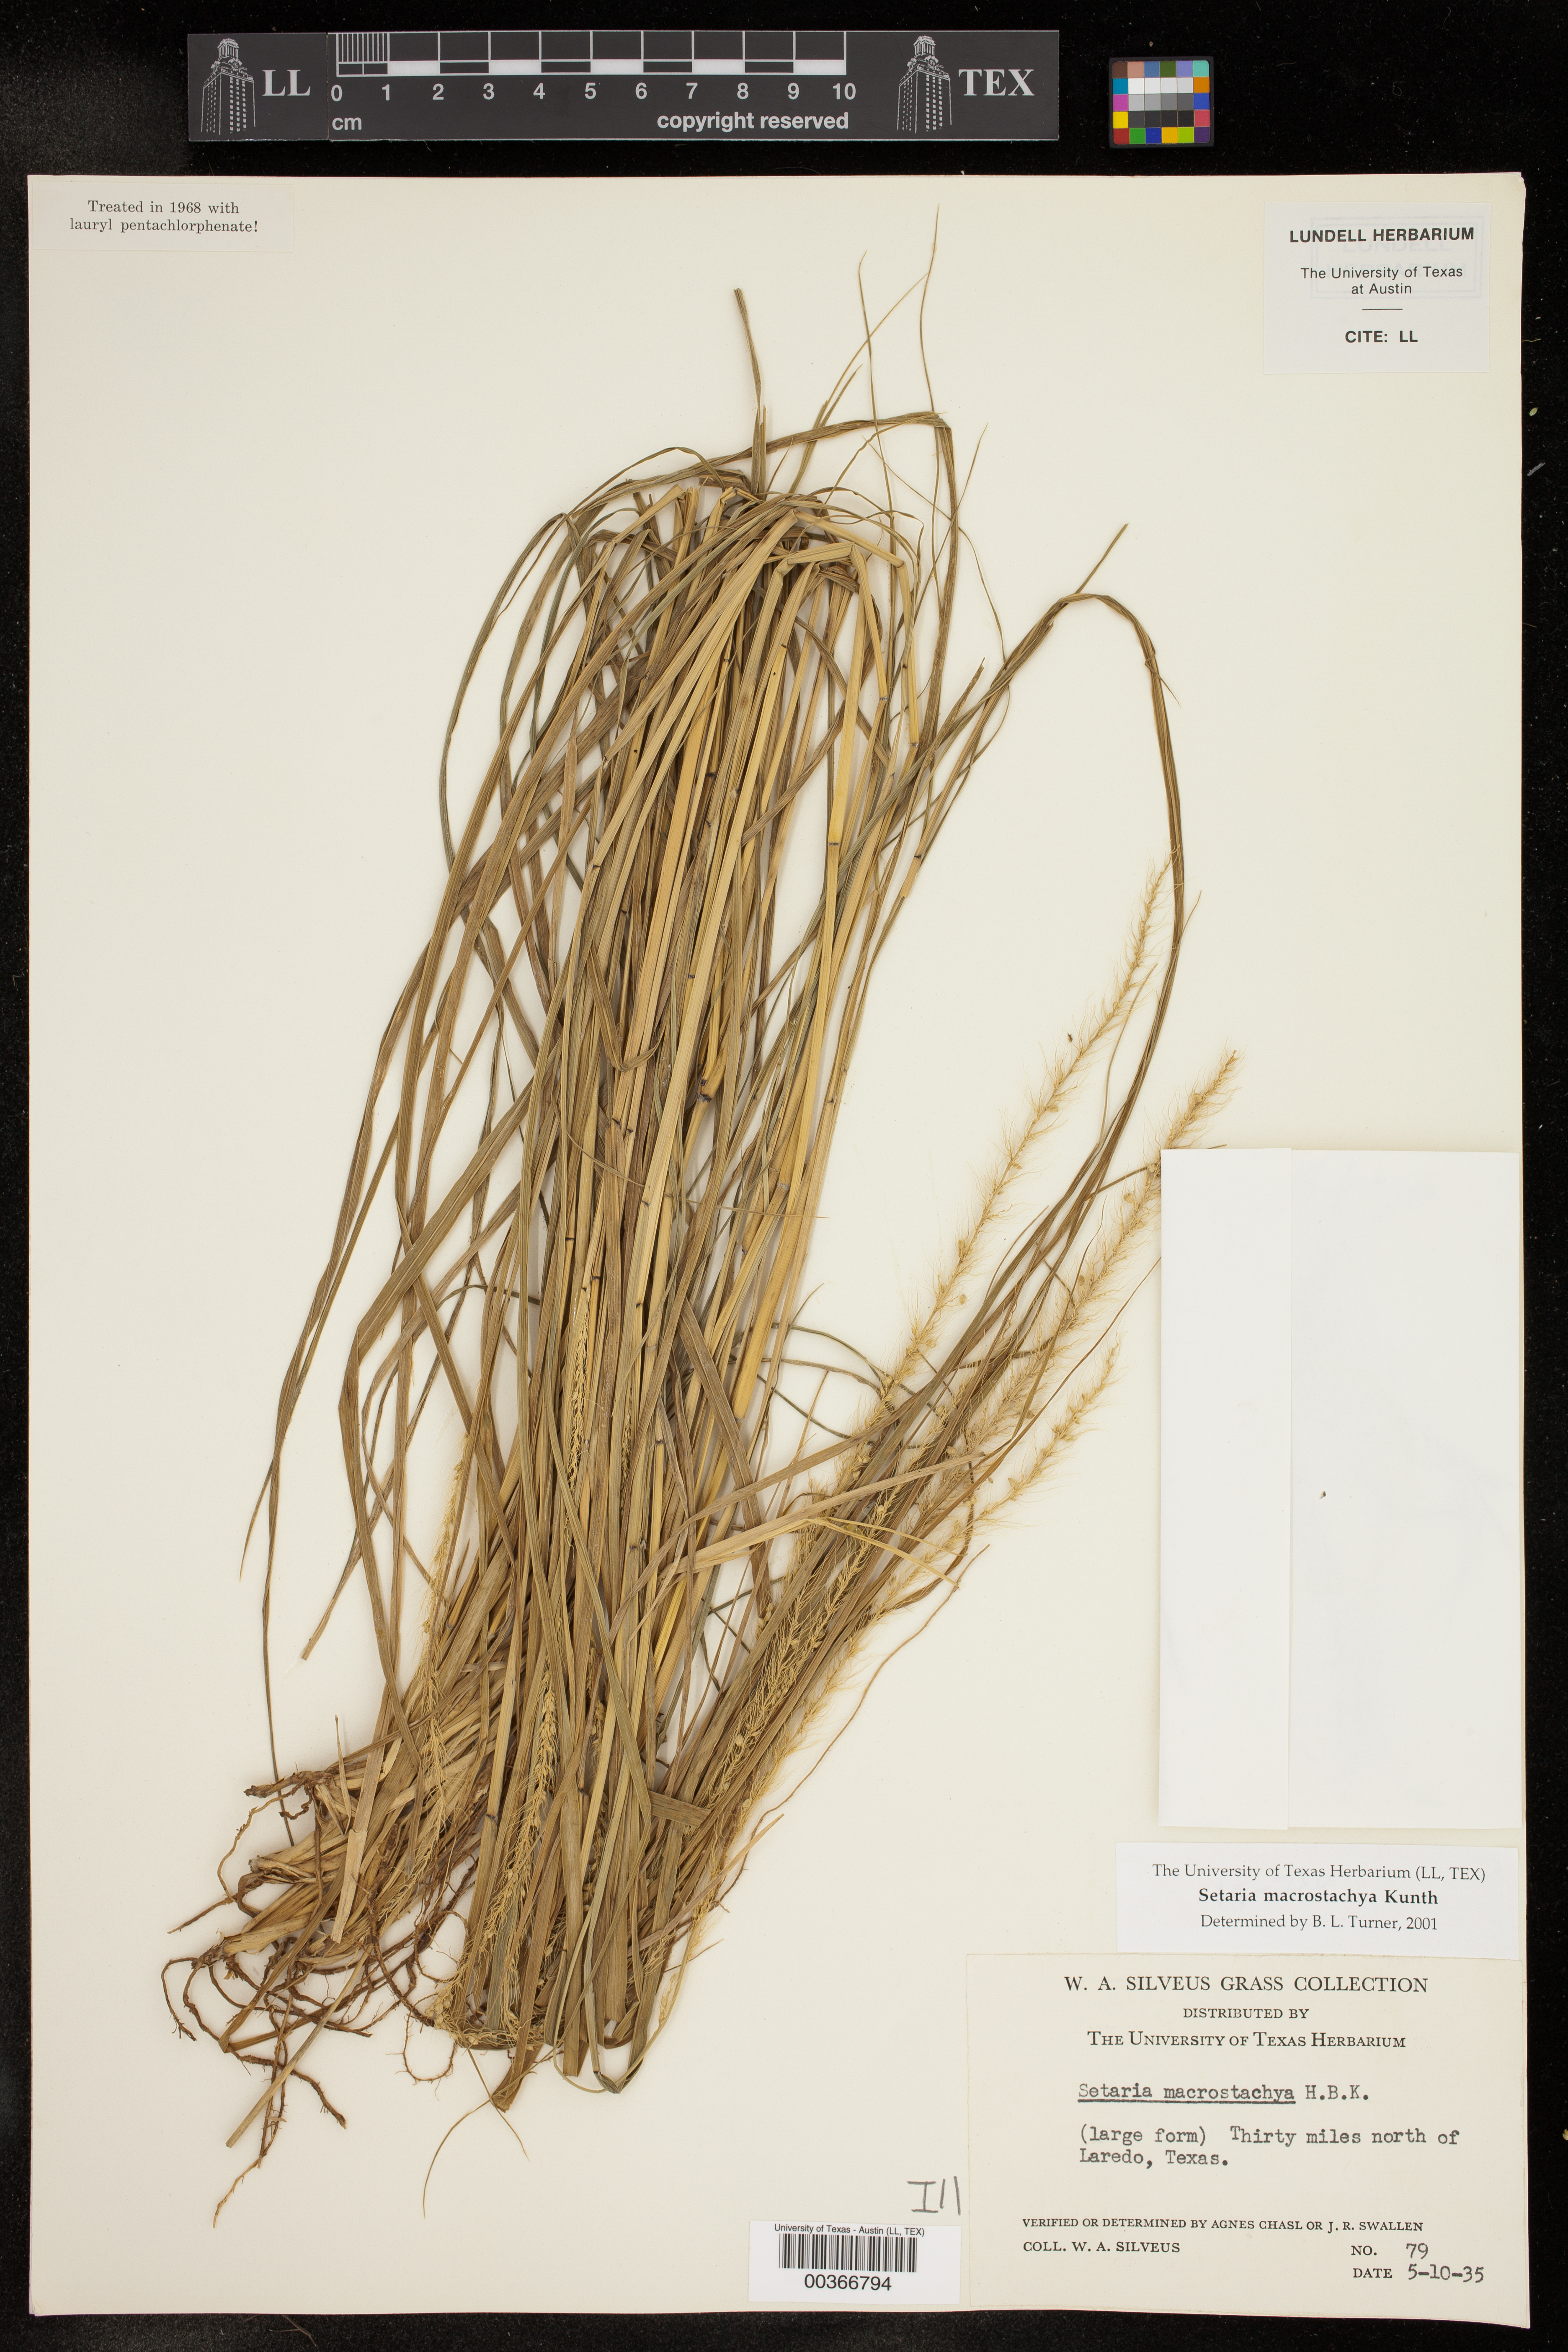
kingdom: Plantae
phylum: Tracheophyta
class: Liliopsida
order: Poales
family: Poaceae
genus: Setaria
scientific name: Setaria macrostachya
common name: Plains bristle grass
